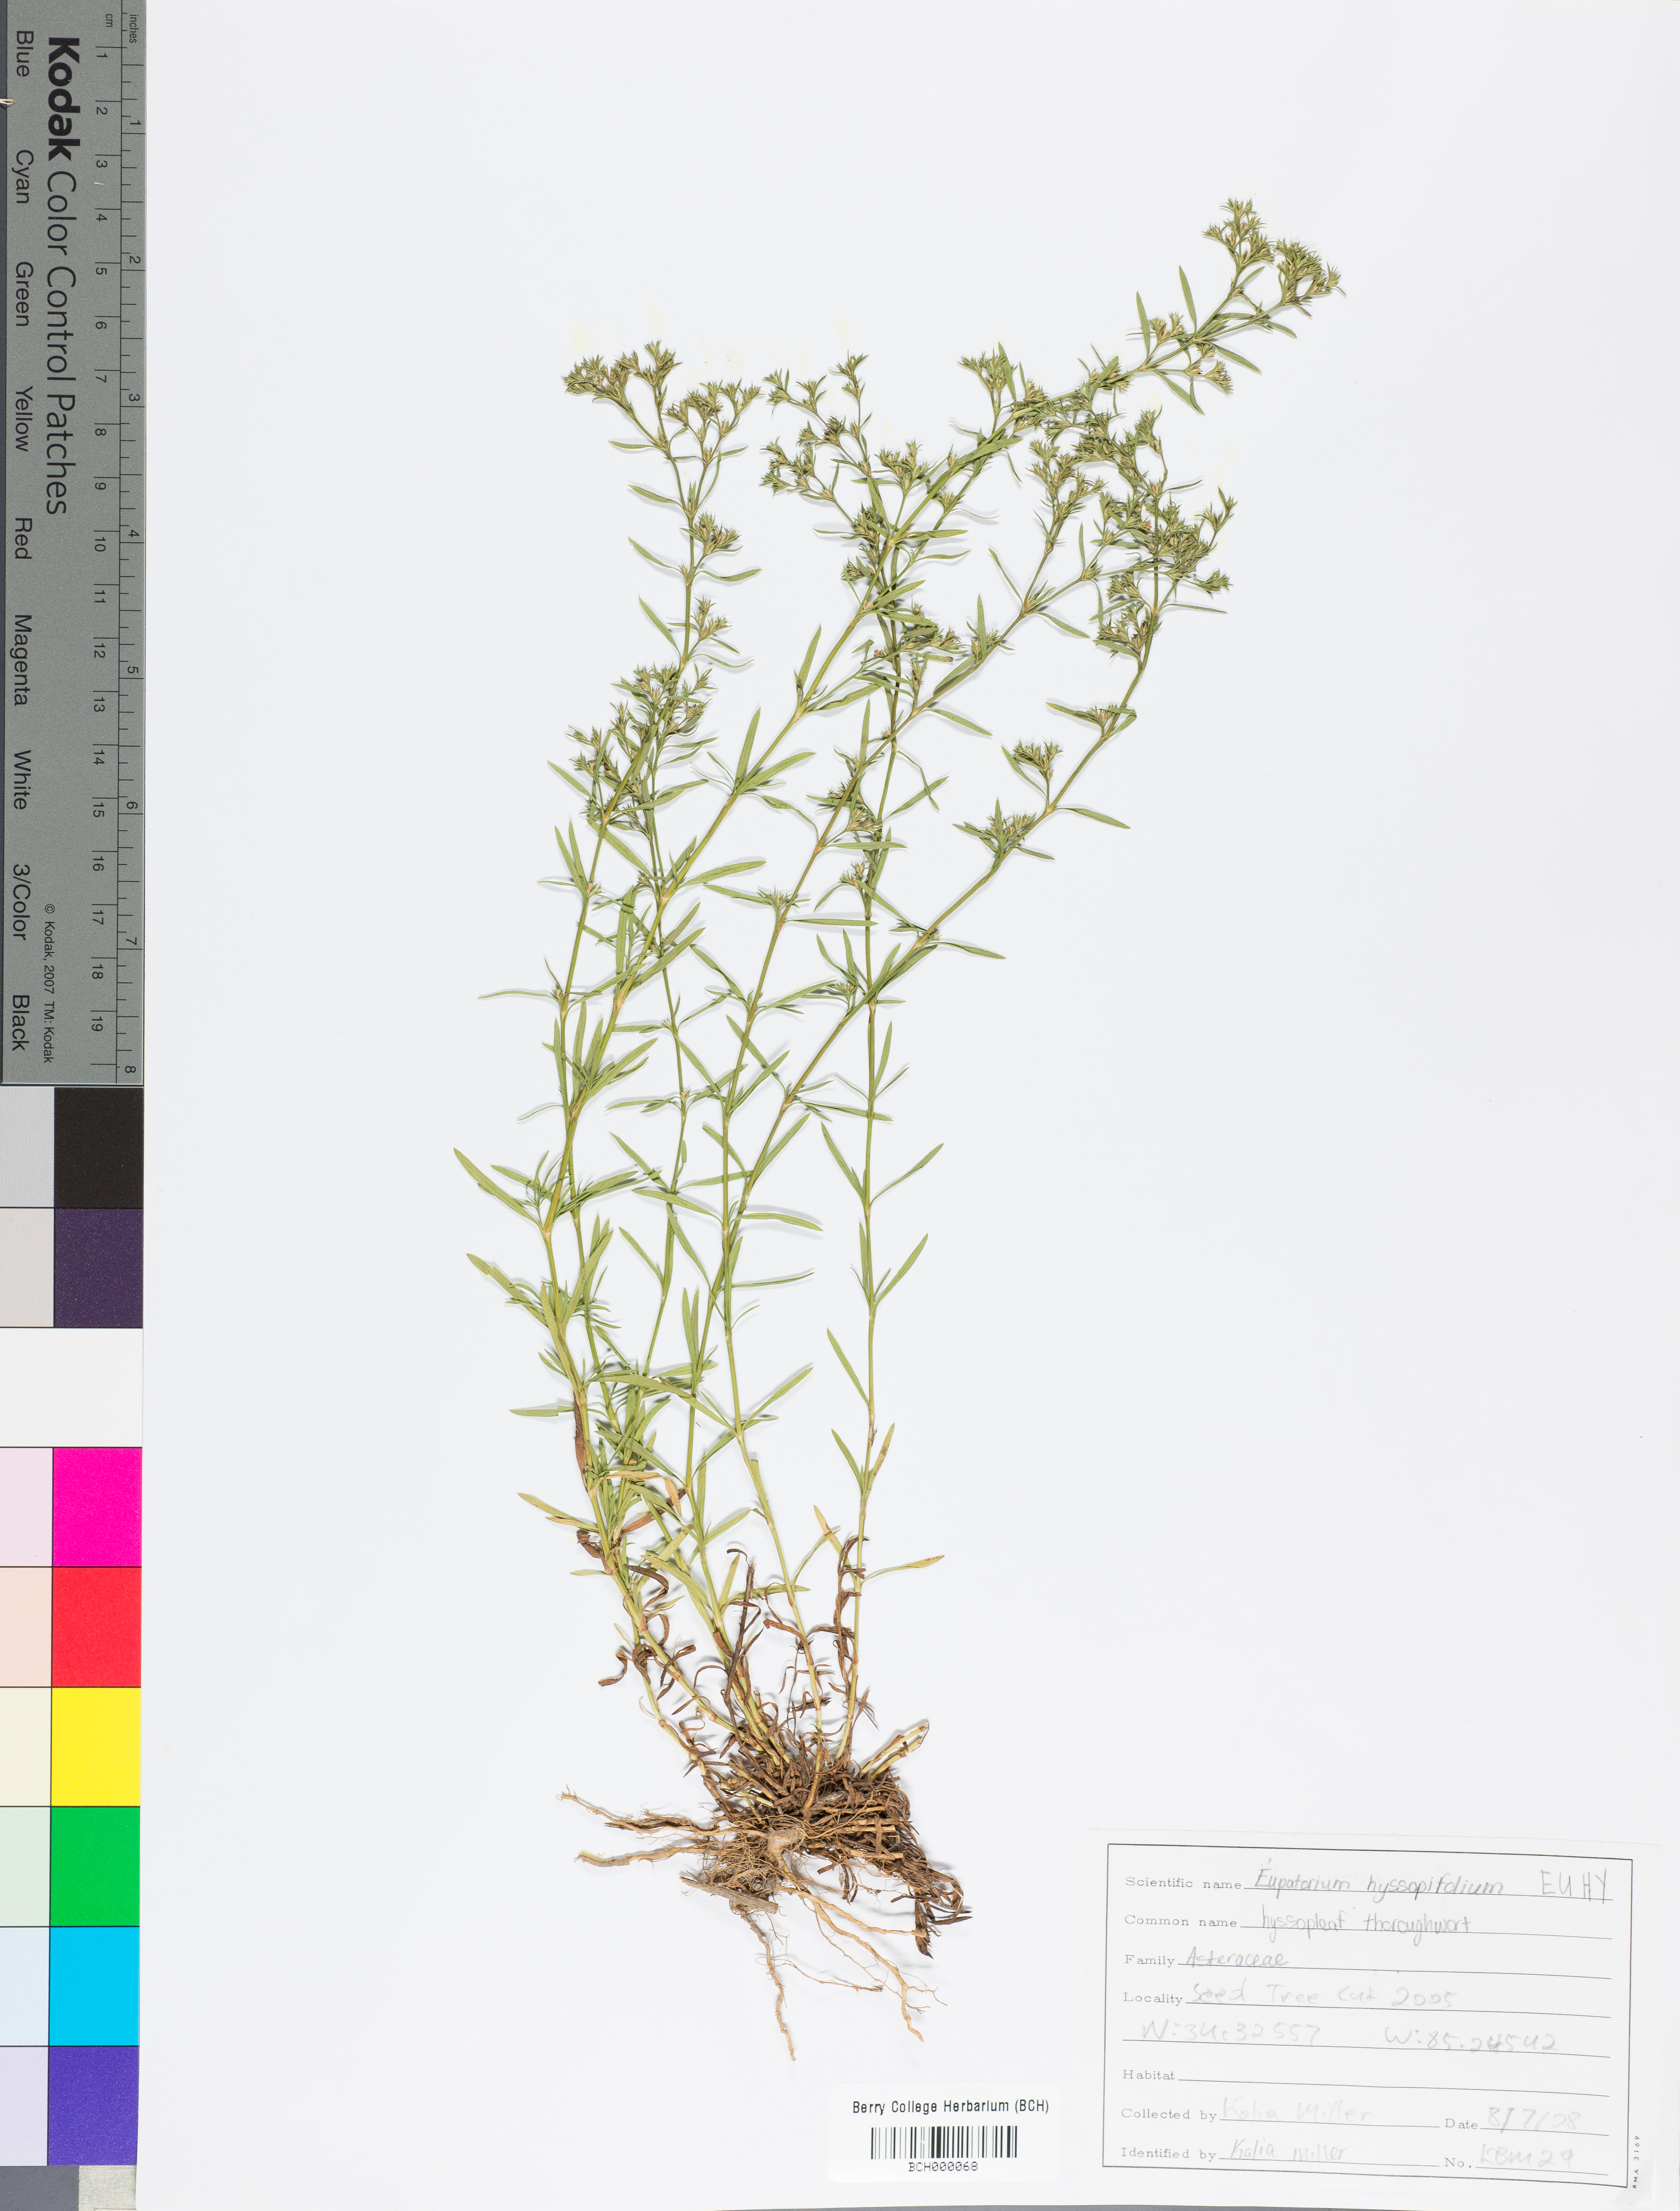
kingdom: Plantae
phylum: Tracheophyta
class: Magnoliopsida
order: Asterales
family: Asteraceae
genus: Eupatorium
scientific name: Eupatorium hyssopifolium
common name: Hyssop-leaf thoroughwort
